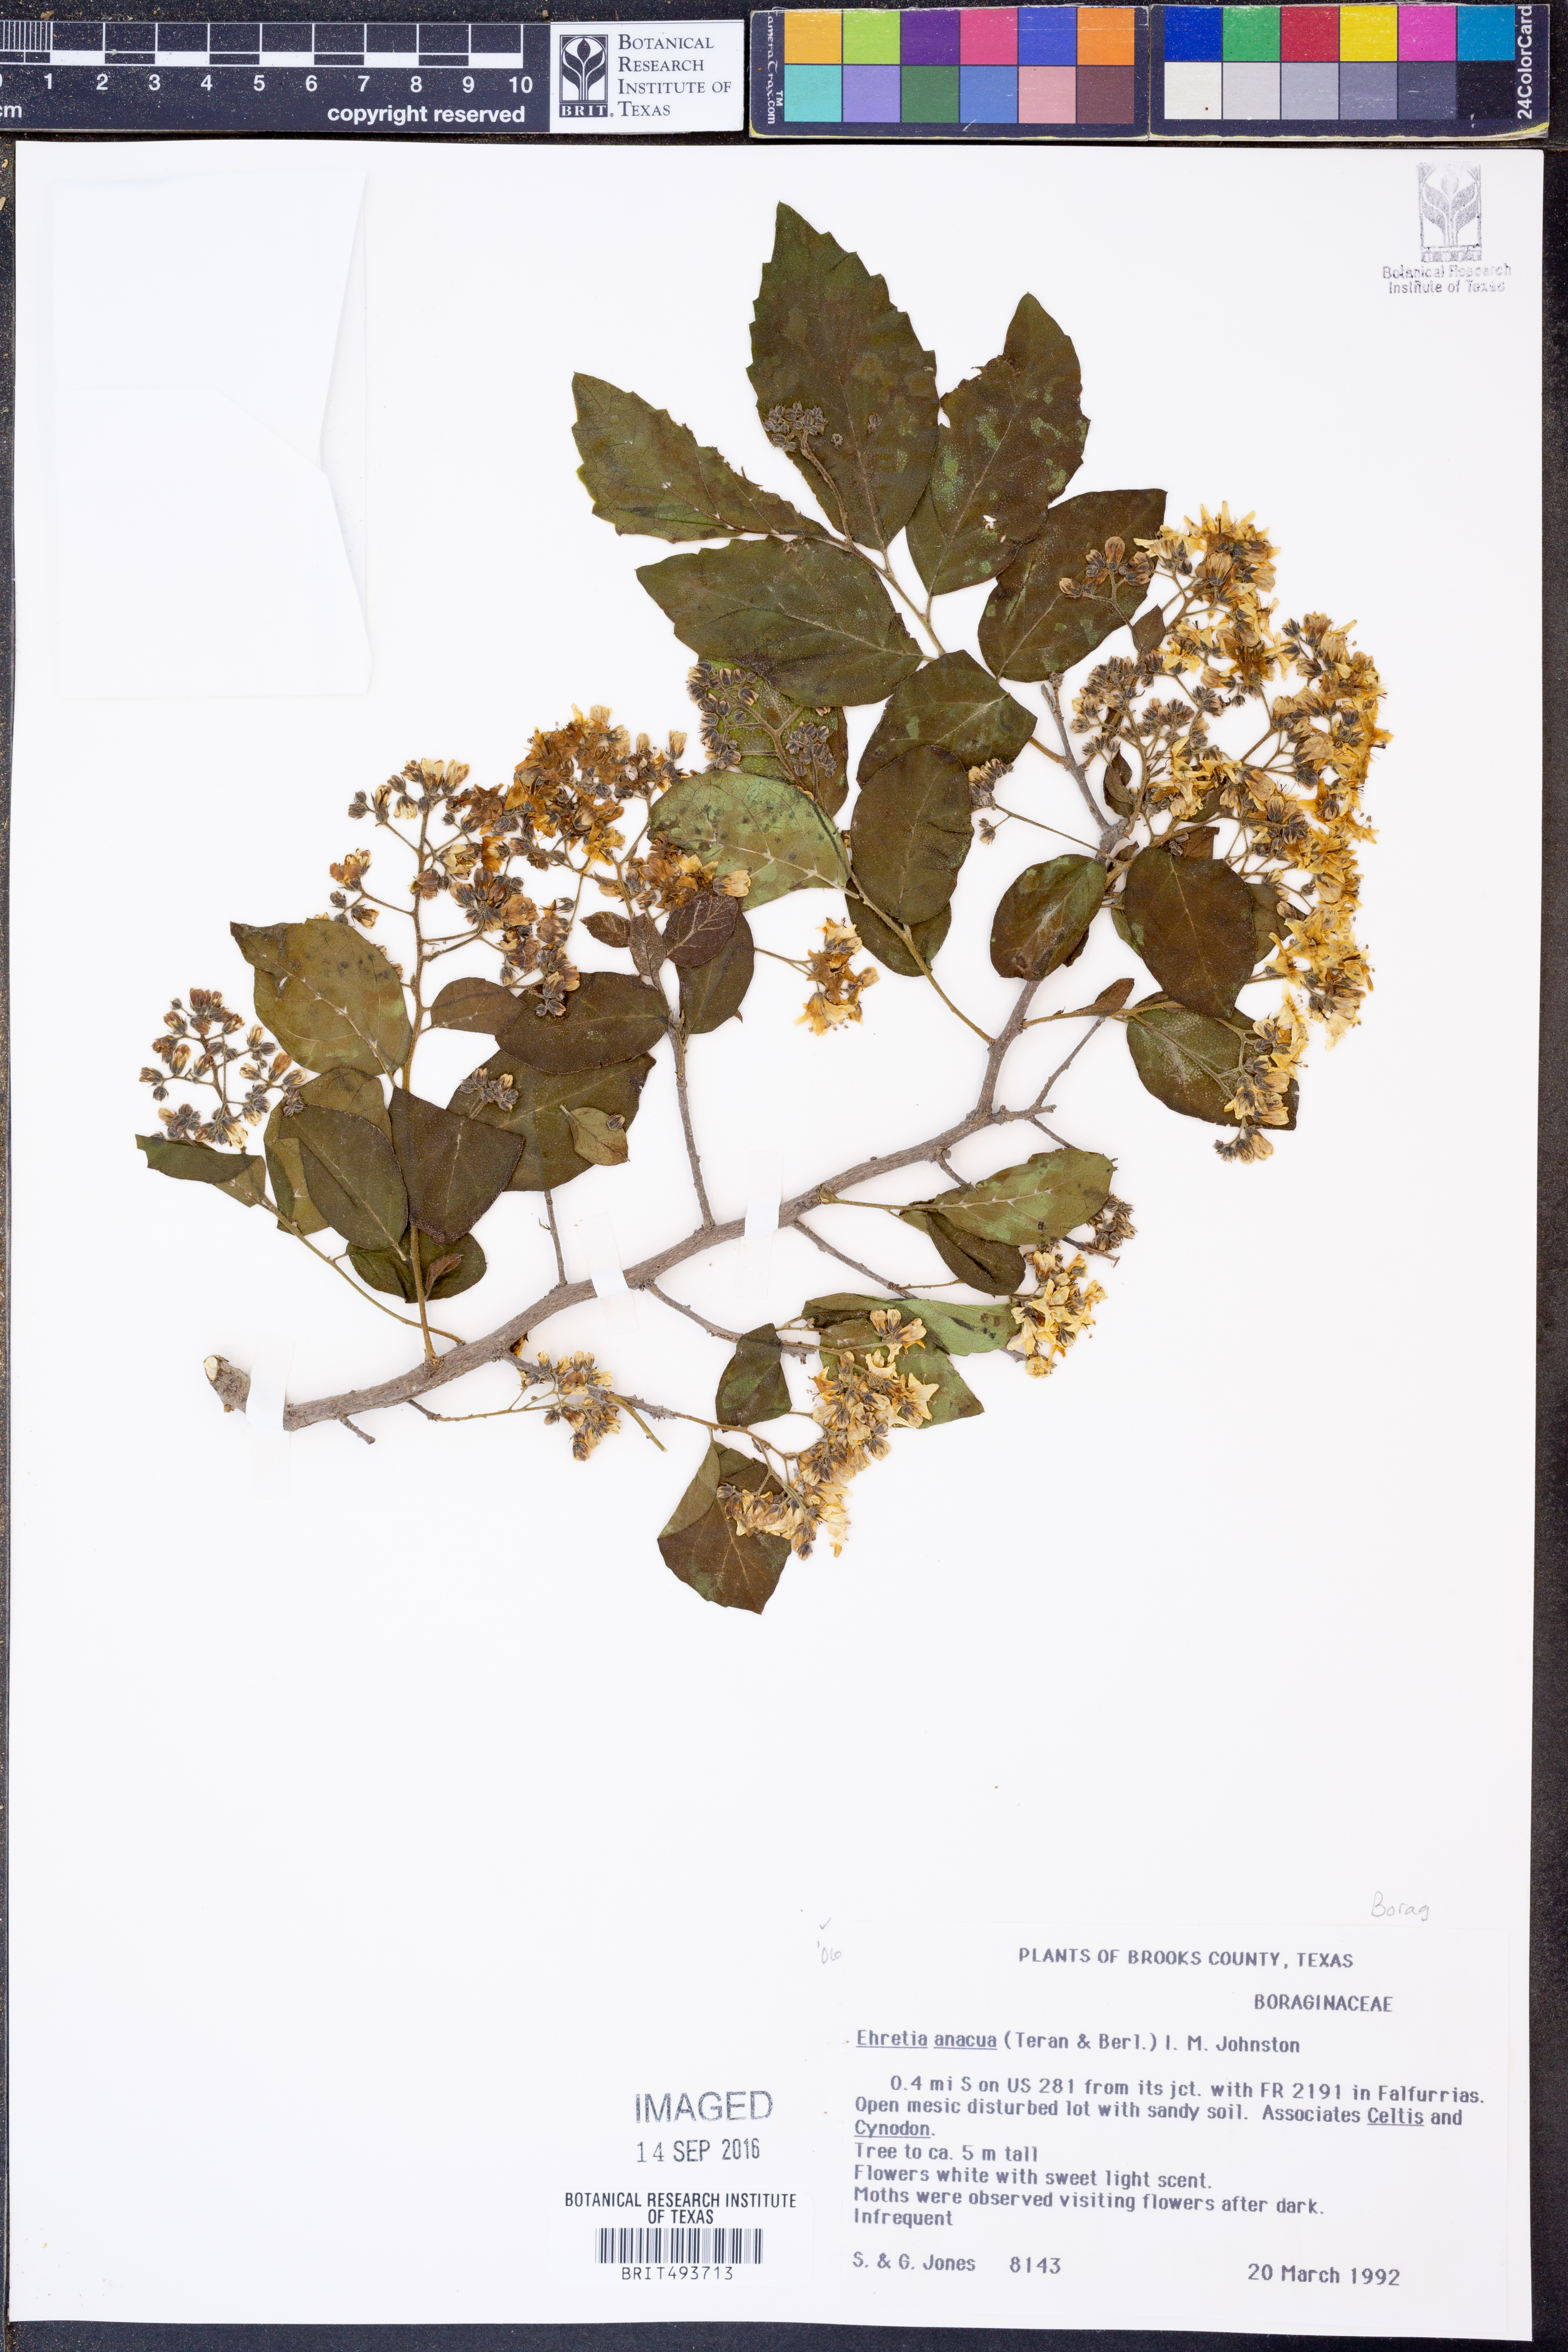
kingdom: Plantae
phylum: Tracheophyta
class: Magnoliopsida
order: Boraginales
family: Ehretiaceae
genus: Ehretia
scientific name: Ehretia anacua
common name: Sugarberry
